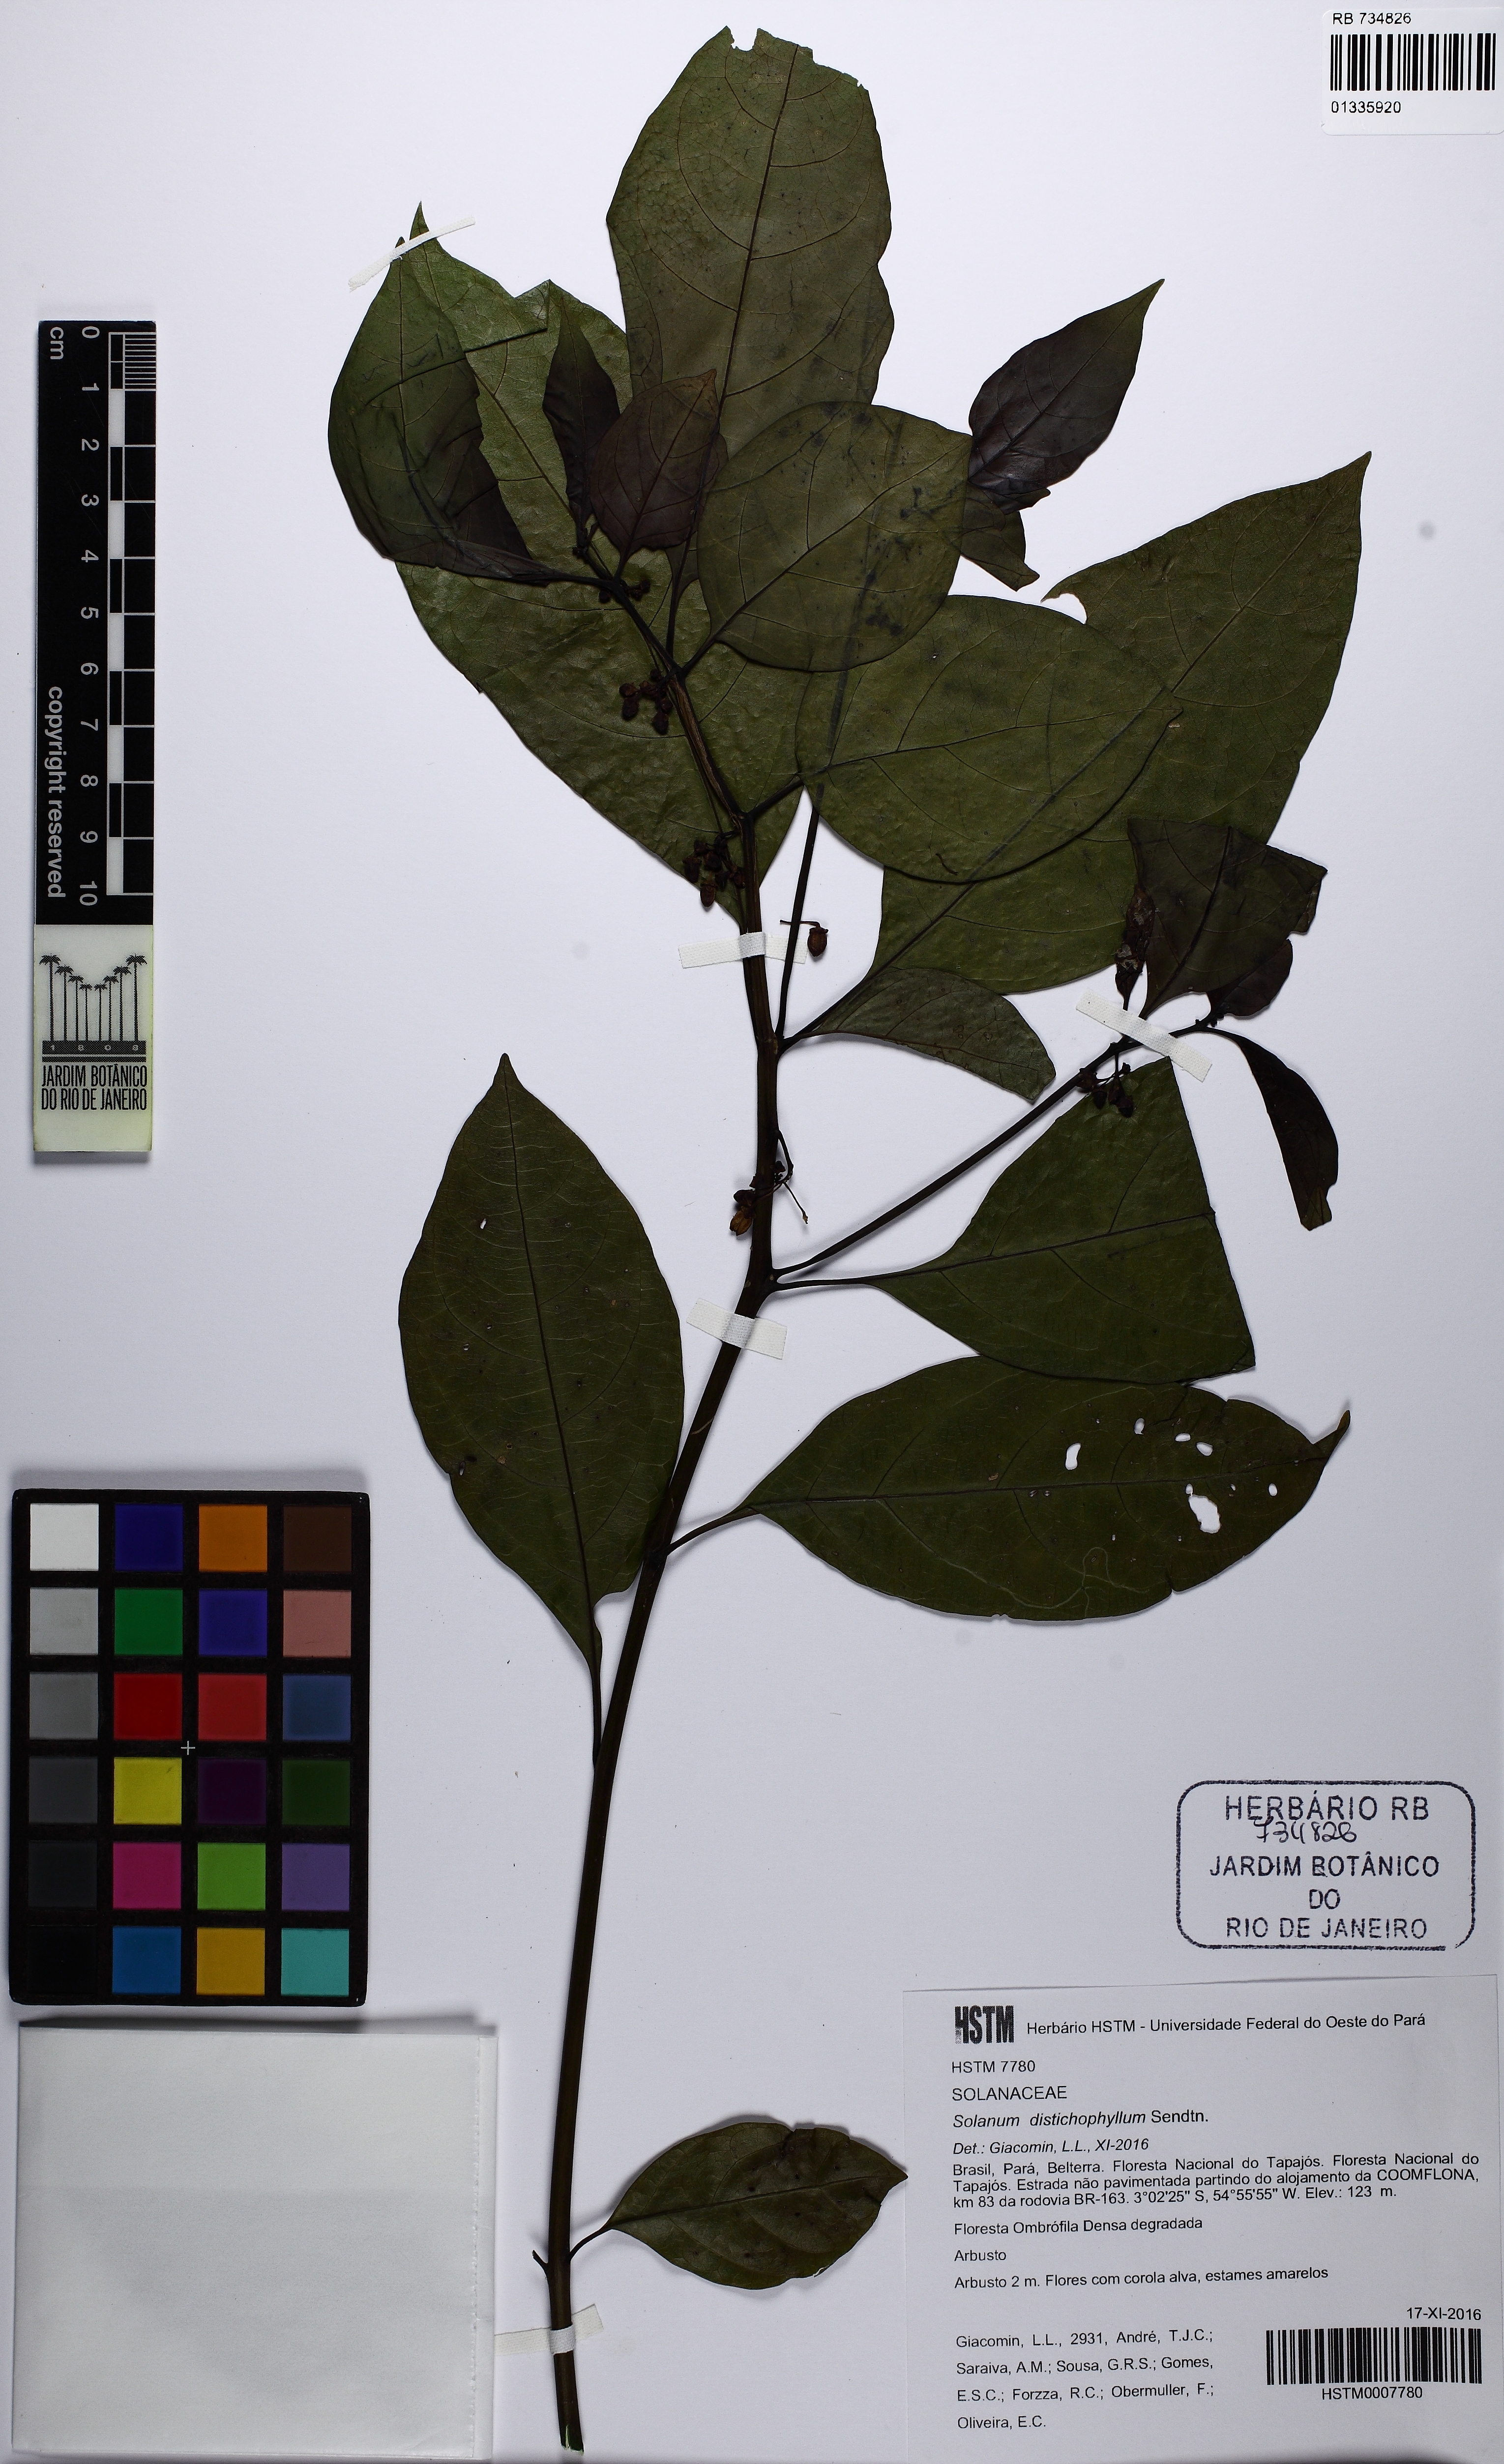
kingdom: Plantae
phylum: Tracheophyta
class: Magnoliopsida
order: Solanales
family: Solanaceae
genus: Solanum
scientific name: Solanum distichophyllum
